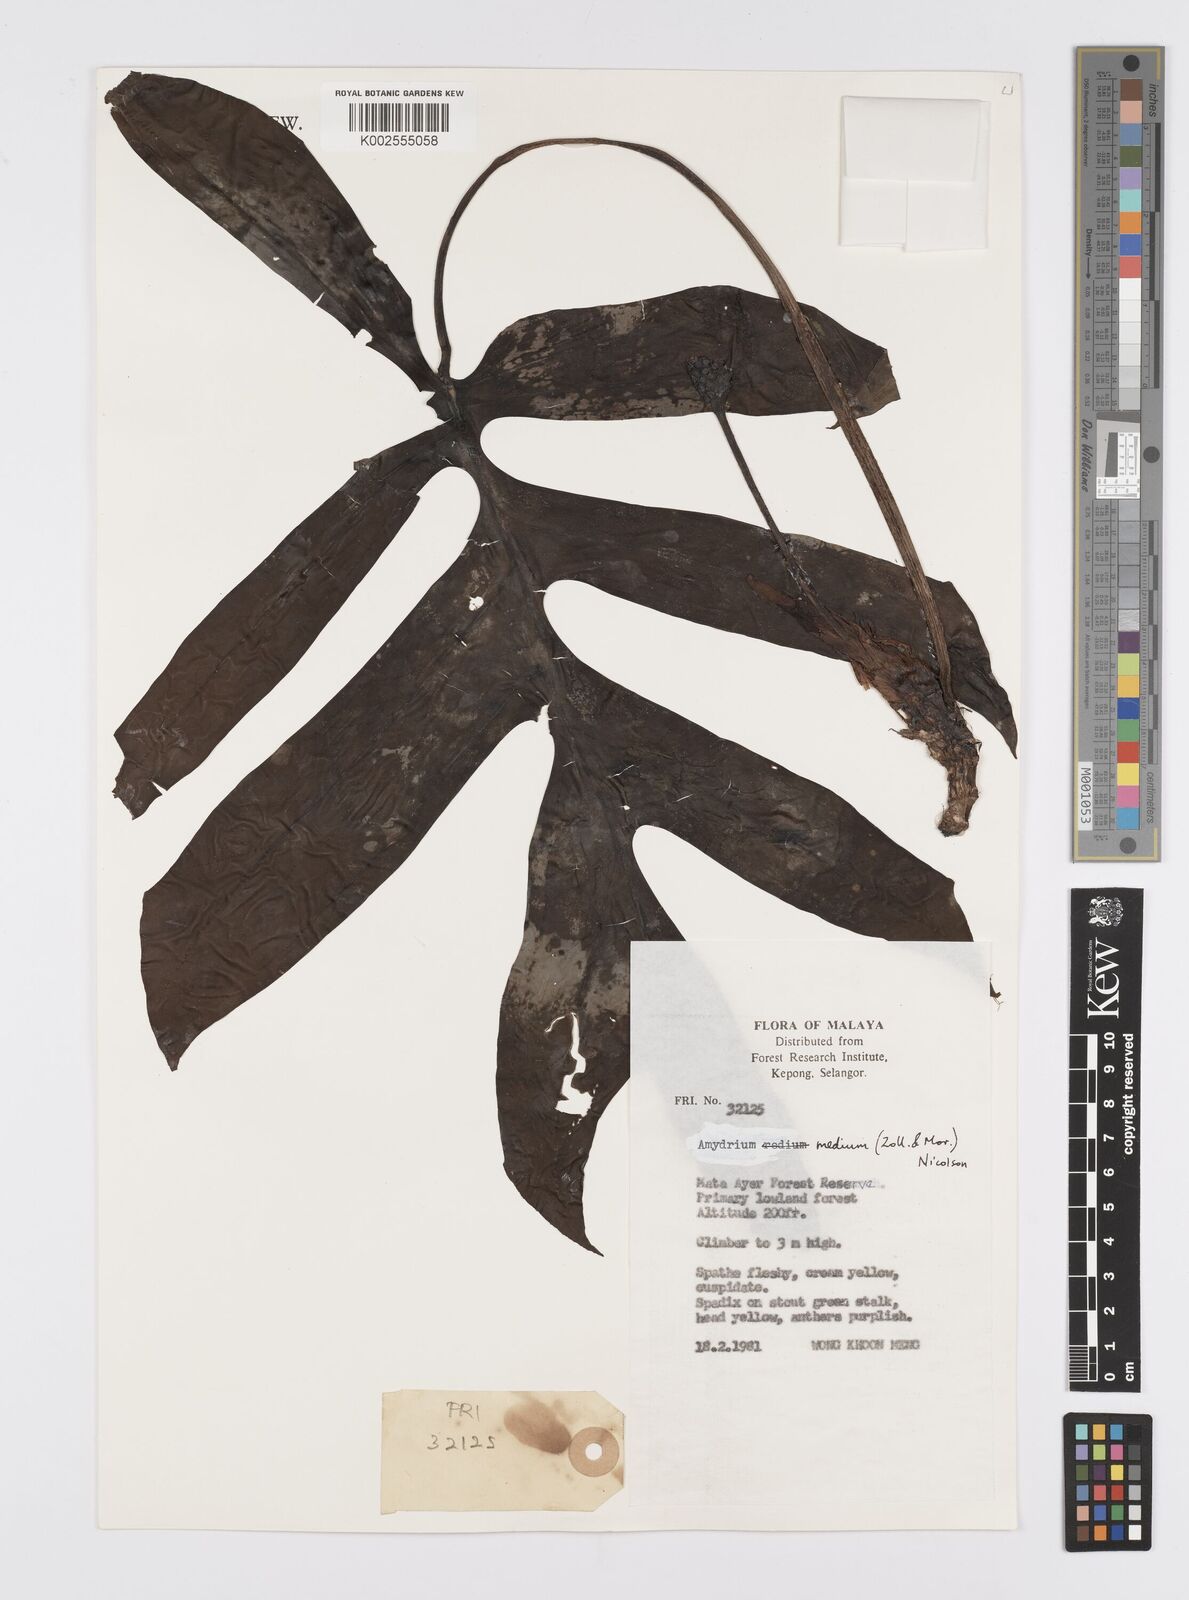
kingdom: Plantae
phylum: Tracheophyta
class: Liliopsida
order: Alismatales
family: Araceae
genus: Amydrium
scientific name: Amydrium medium
